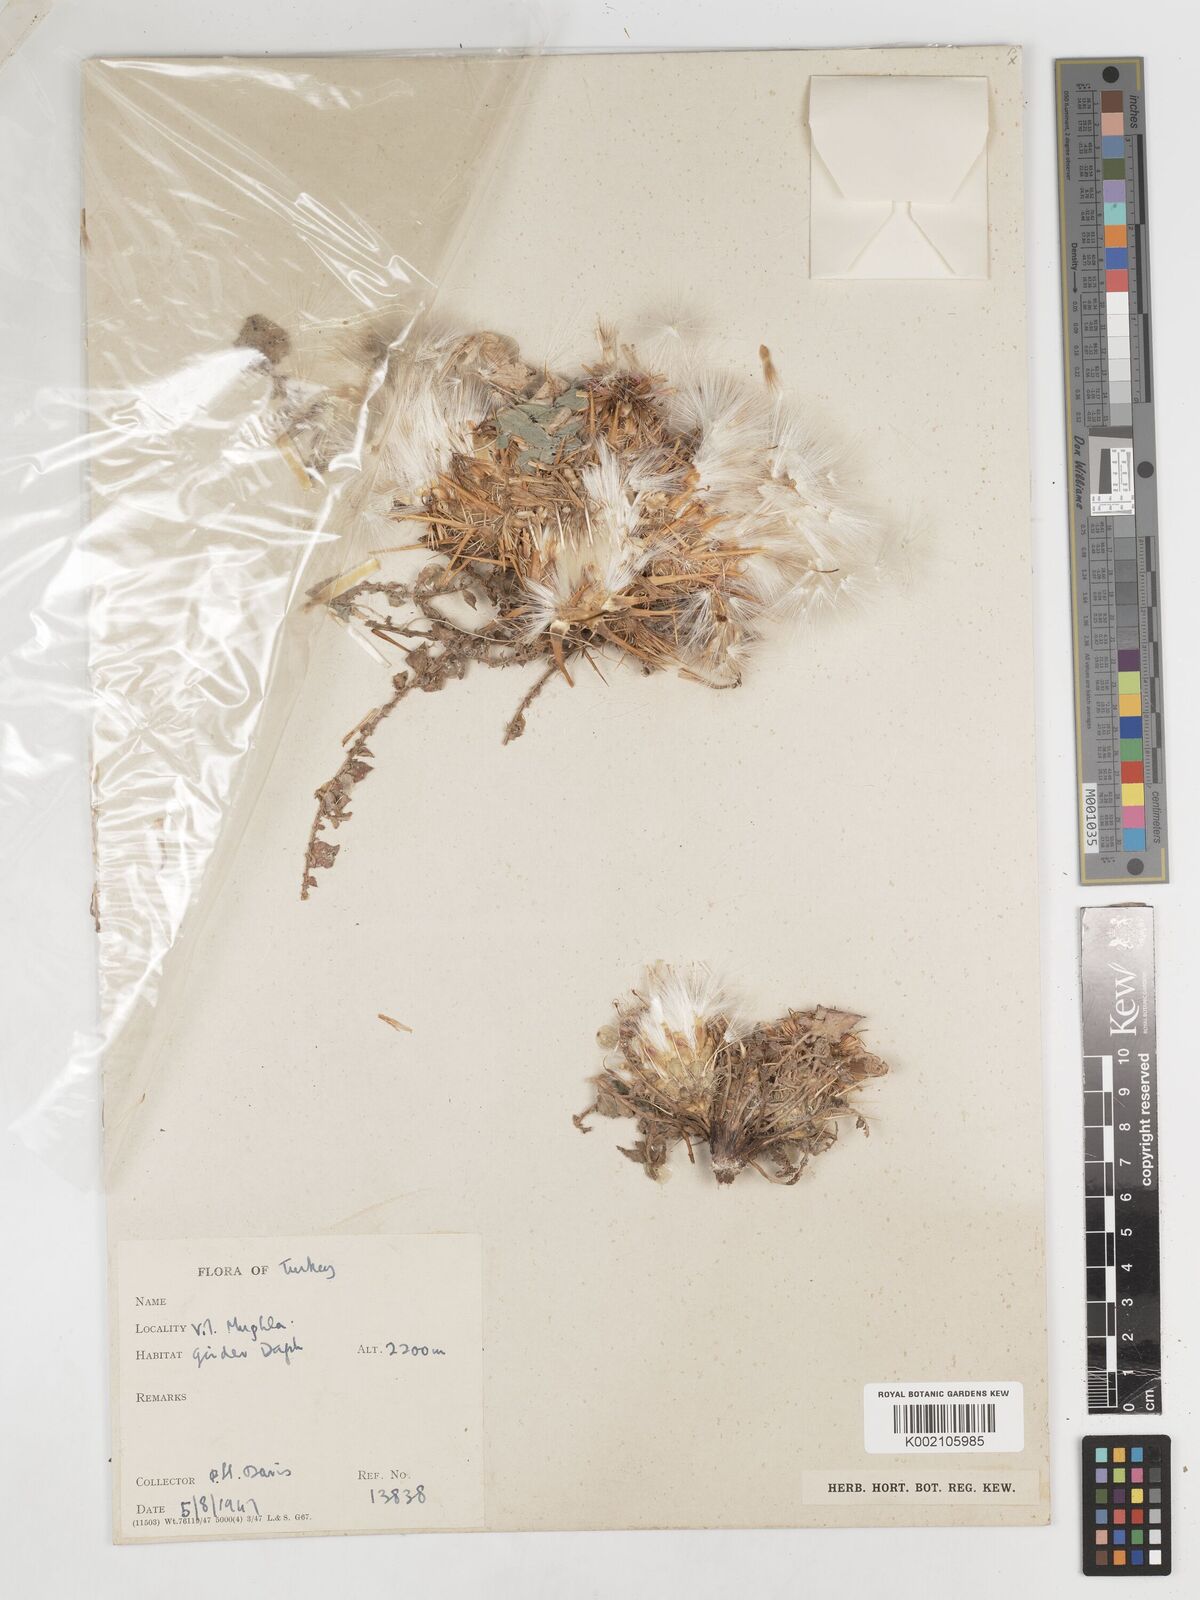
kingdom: Plantae
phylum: Tracheophyta
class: Magnoliopsida
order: Asterales
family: Asteraceae
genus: Centaurea
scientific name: Centaurea
